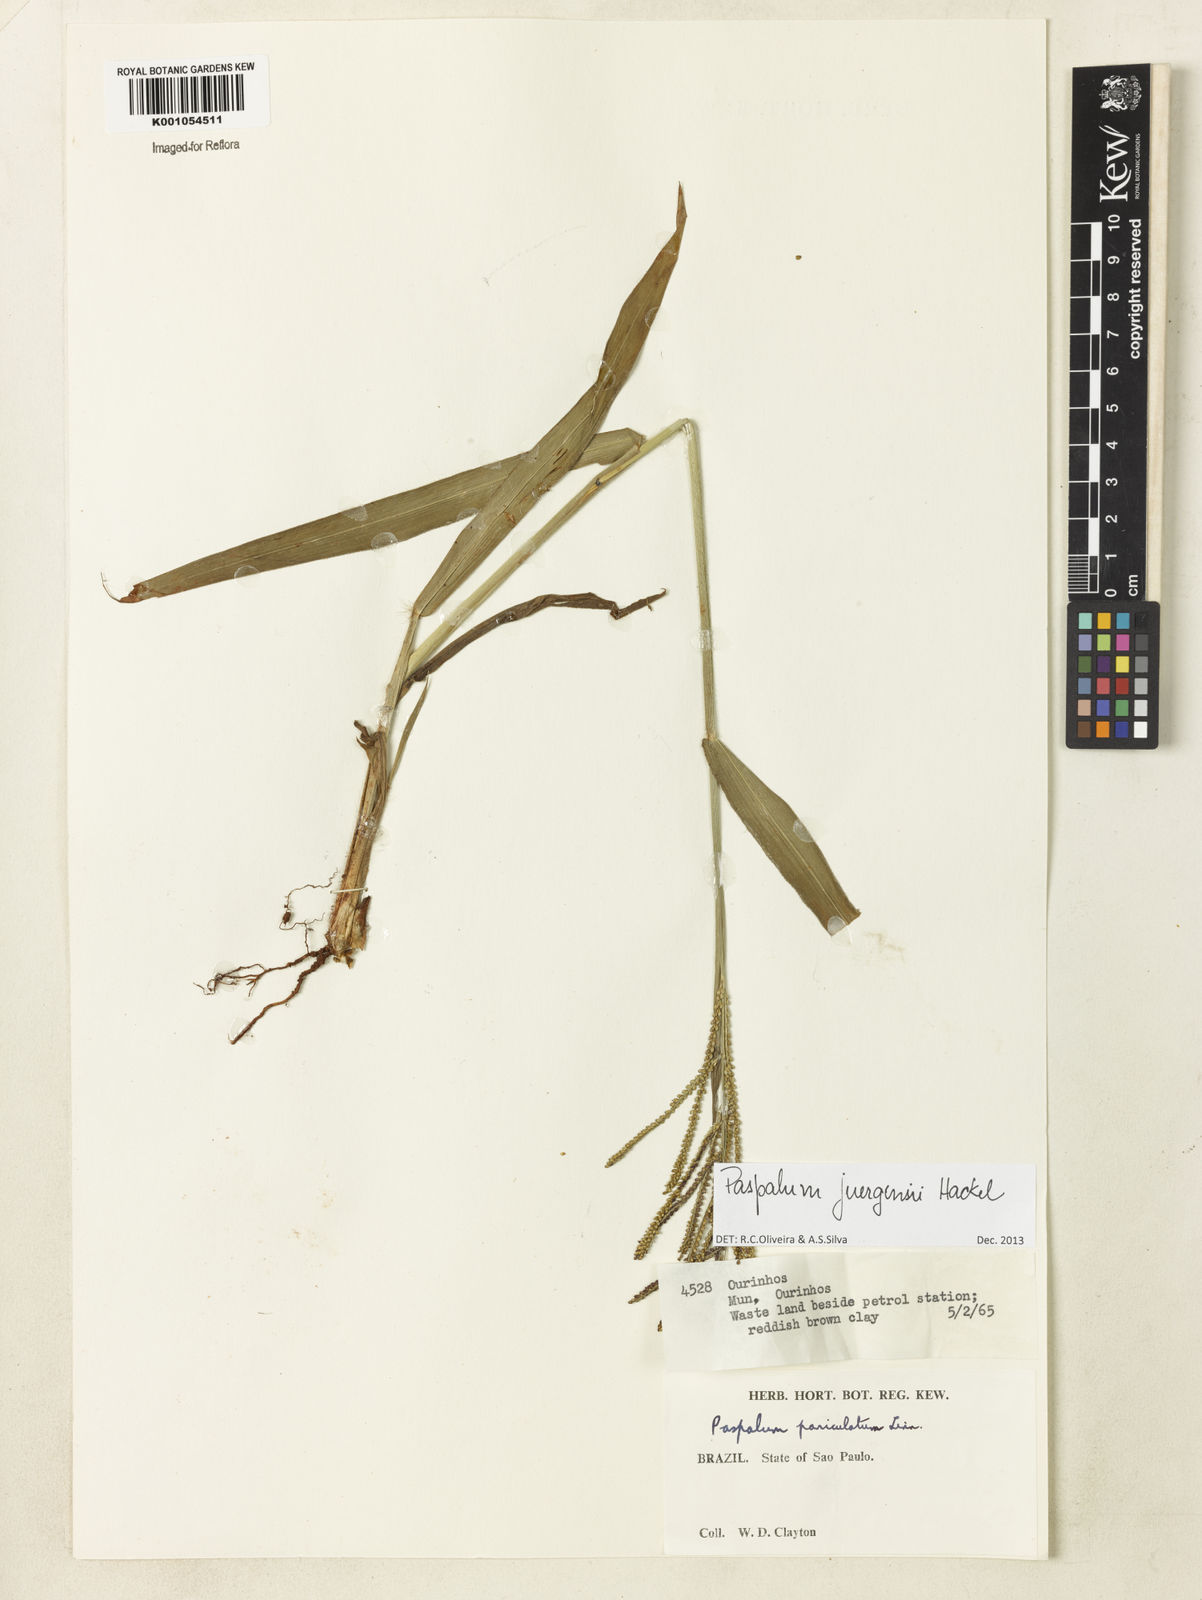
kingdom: Plantae
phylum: Tracheophyta
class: Liliopsida
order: Poales
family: Poaceae
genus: Paspalum
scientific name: Paspalum juergensii
